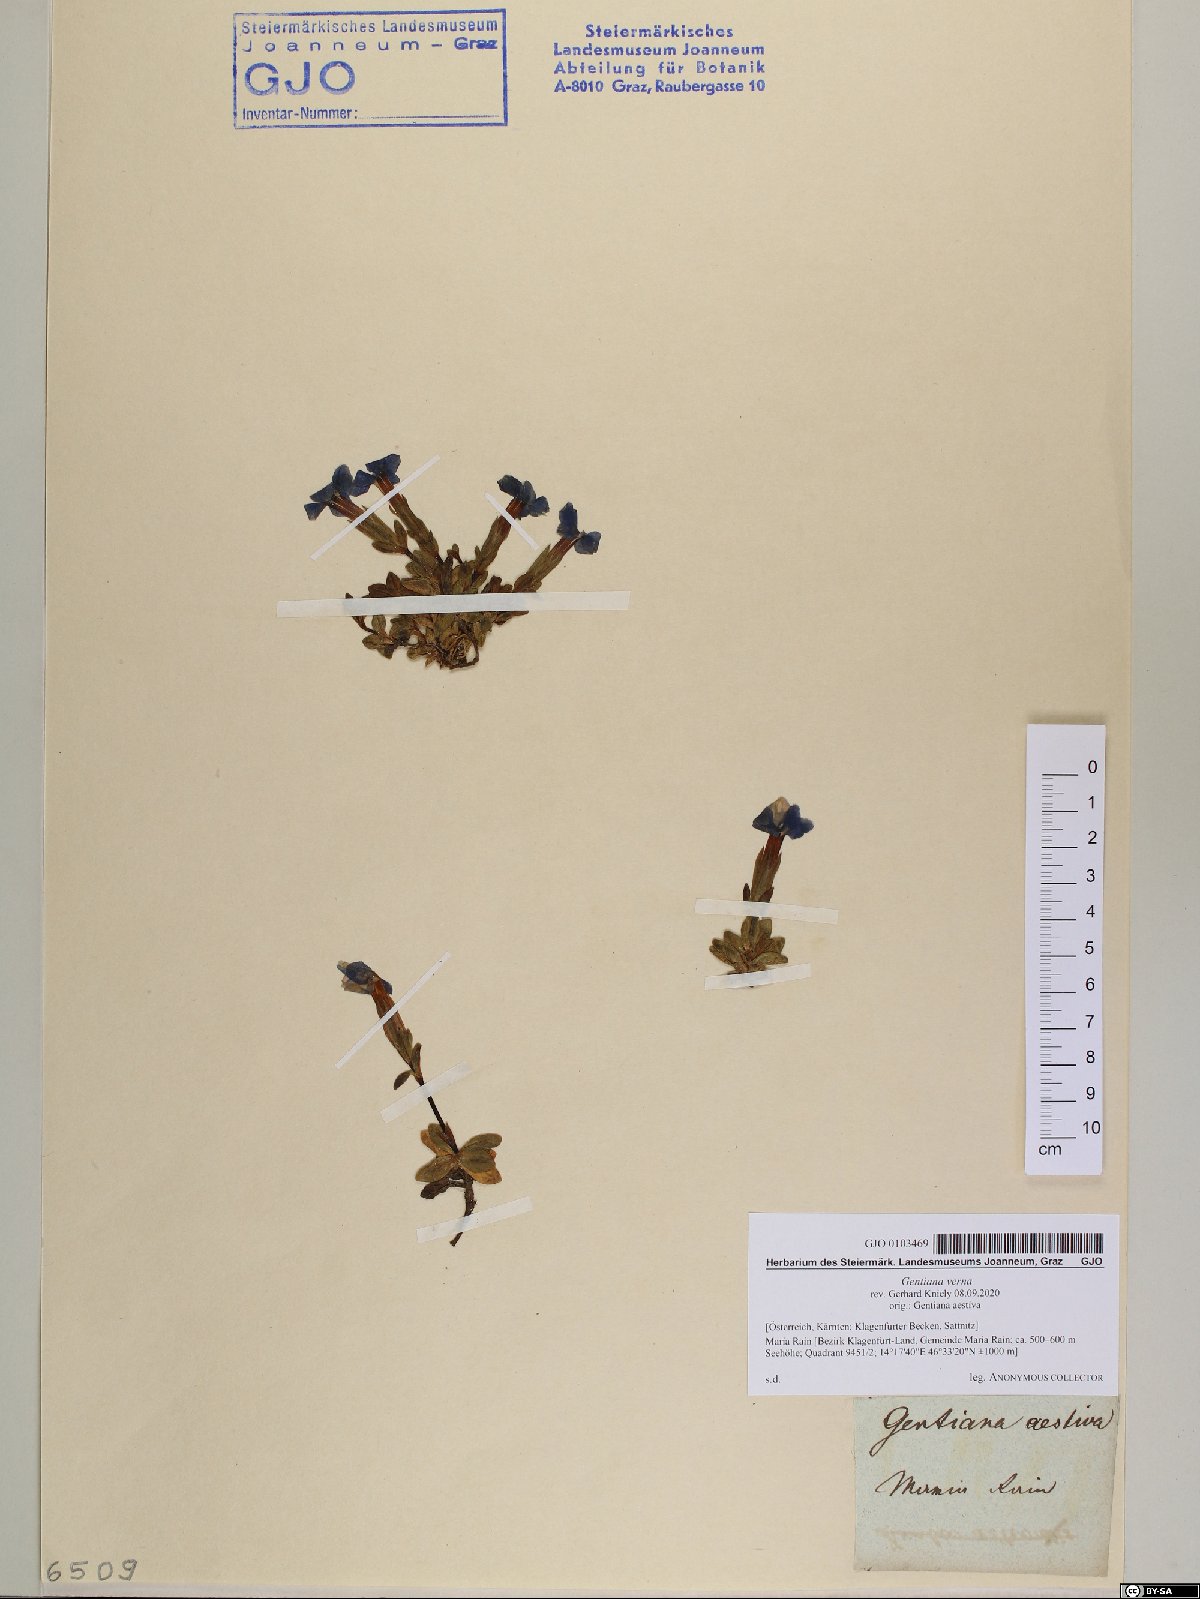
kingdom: Plantae
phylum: Tracheophyta
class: Magnoliopsida
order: Gentianales
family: Gentianaceae
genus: Gentiana
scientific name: Gentiana verna
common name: Spring gentian
